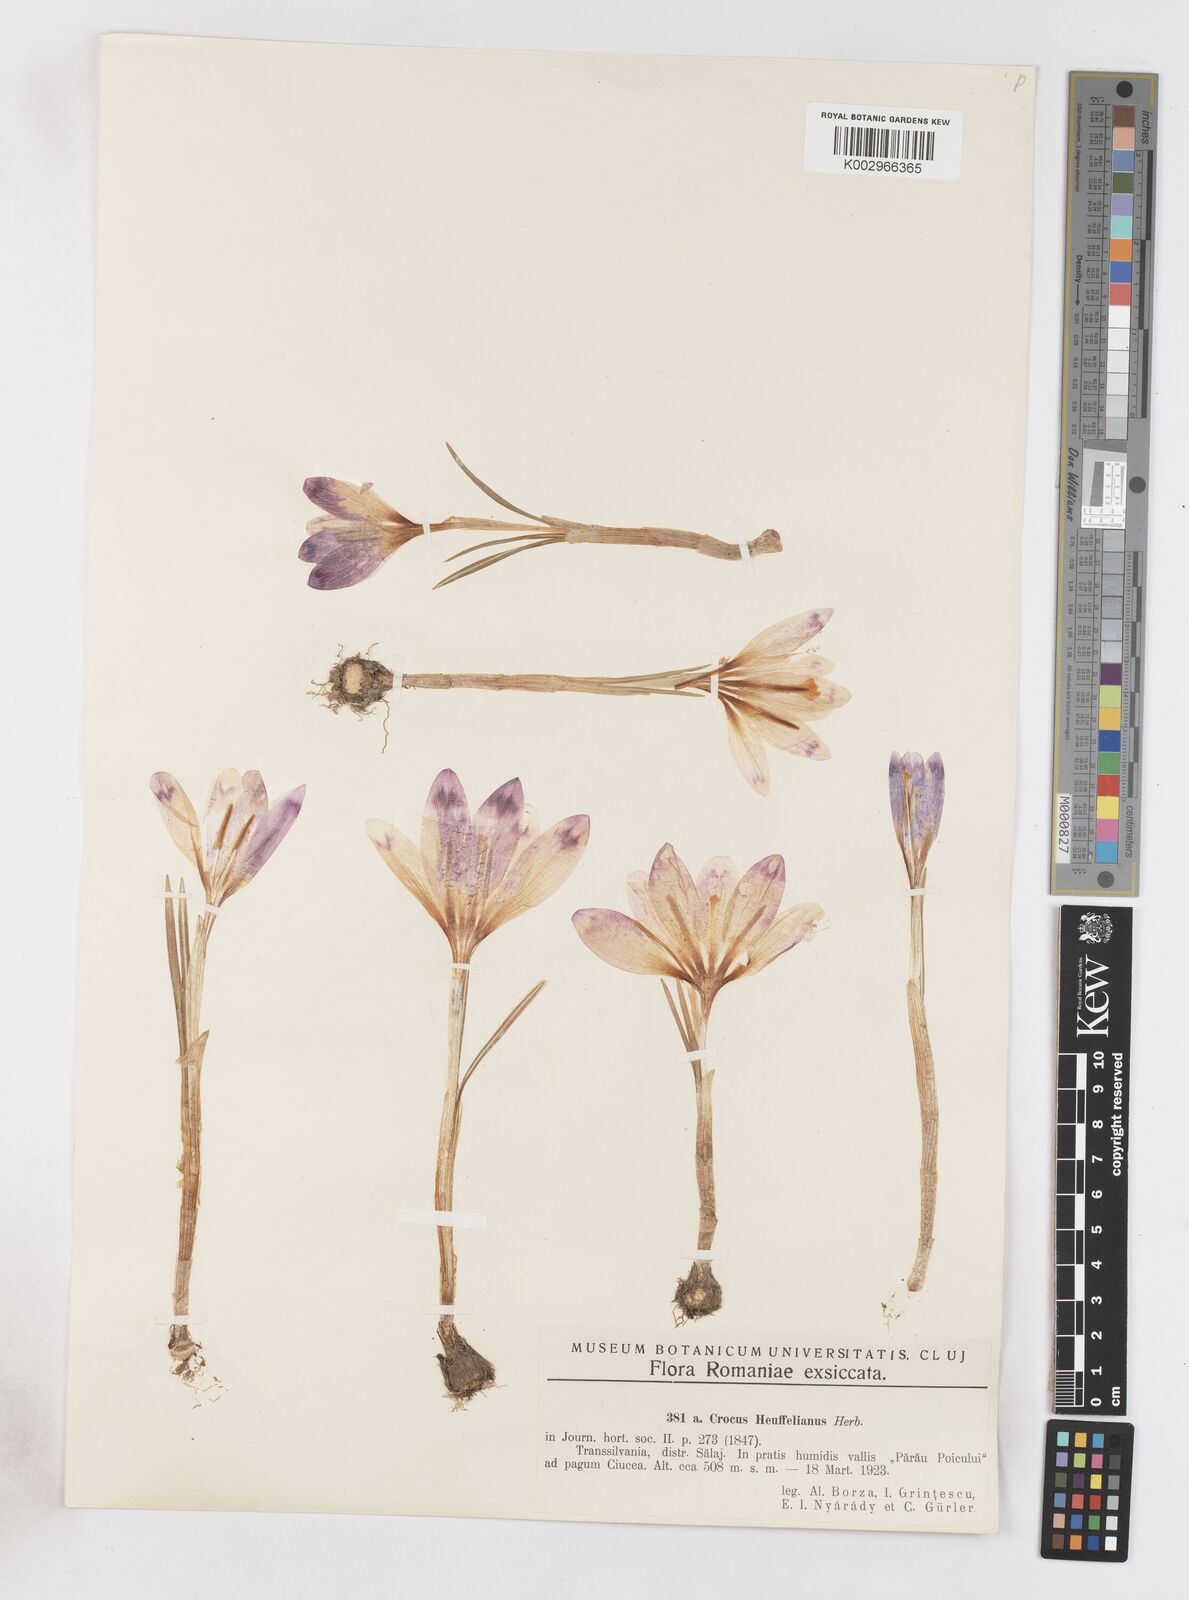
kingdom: Plantae
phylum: Tracheophyta
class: Liliopsida
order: Asparagales
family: Iridaceae
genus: Crocus
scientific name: Crocus vernus
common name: Spring crocus
